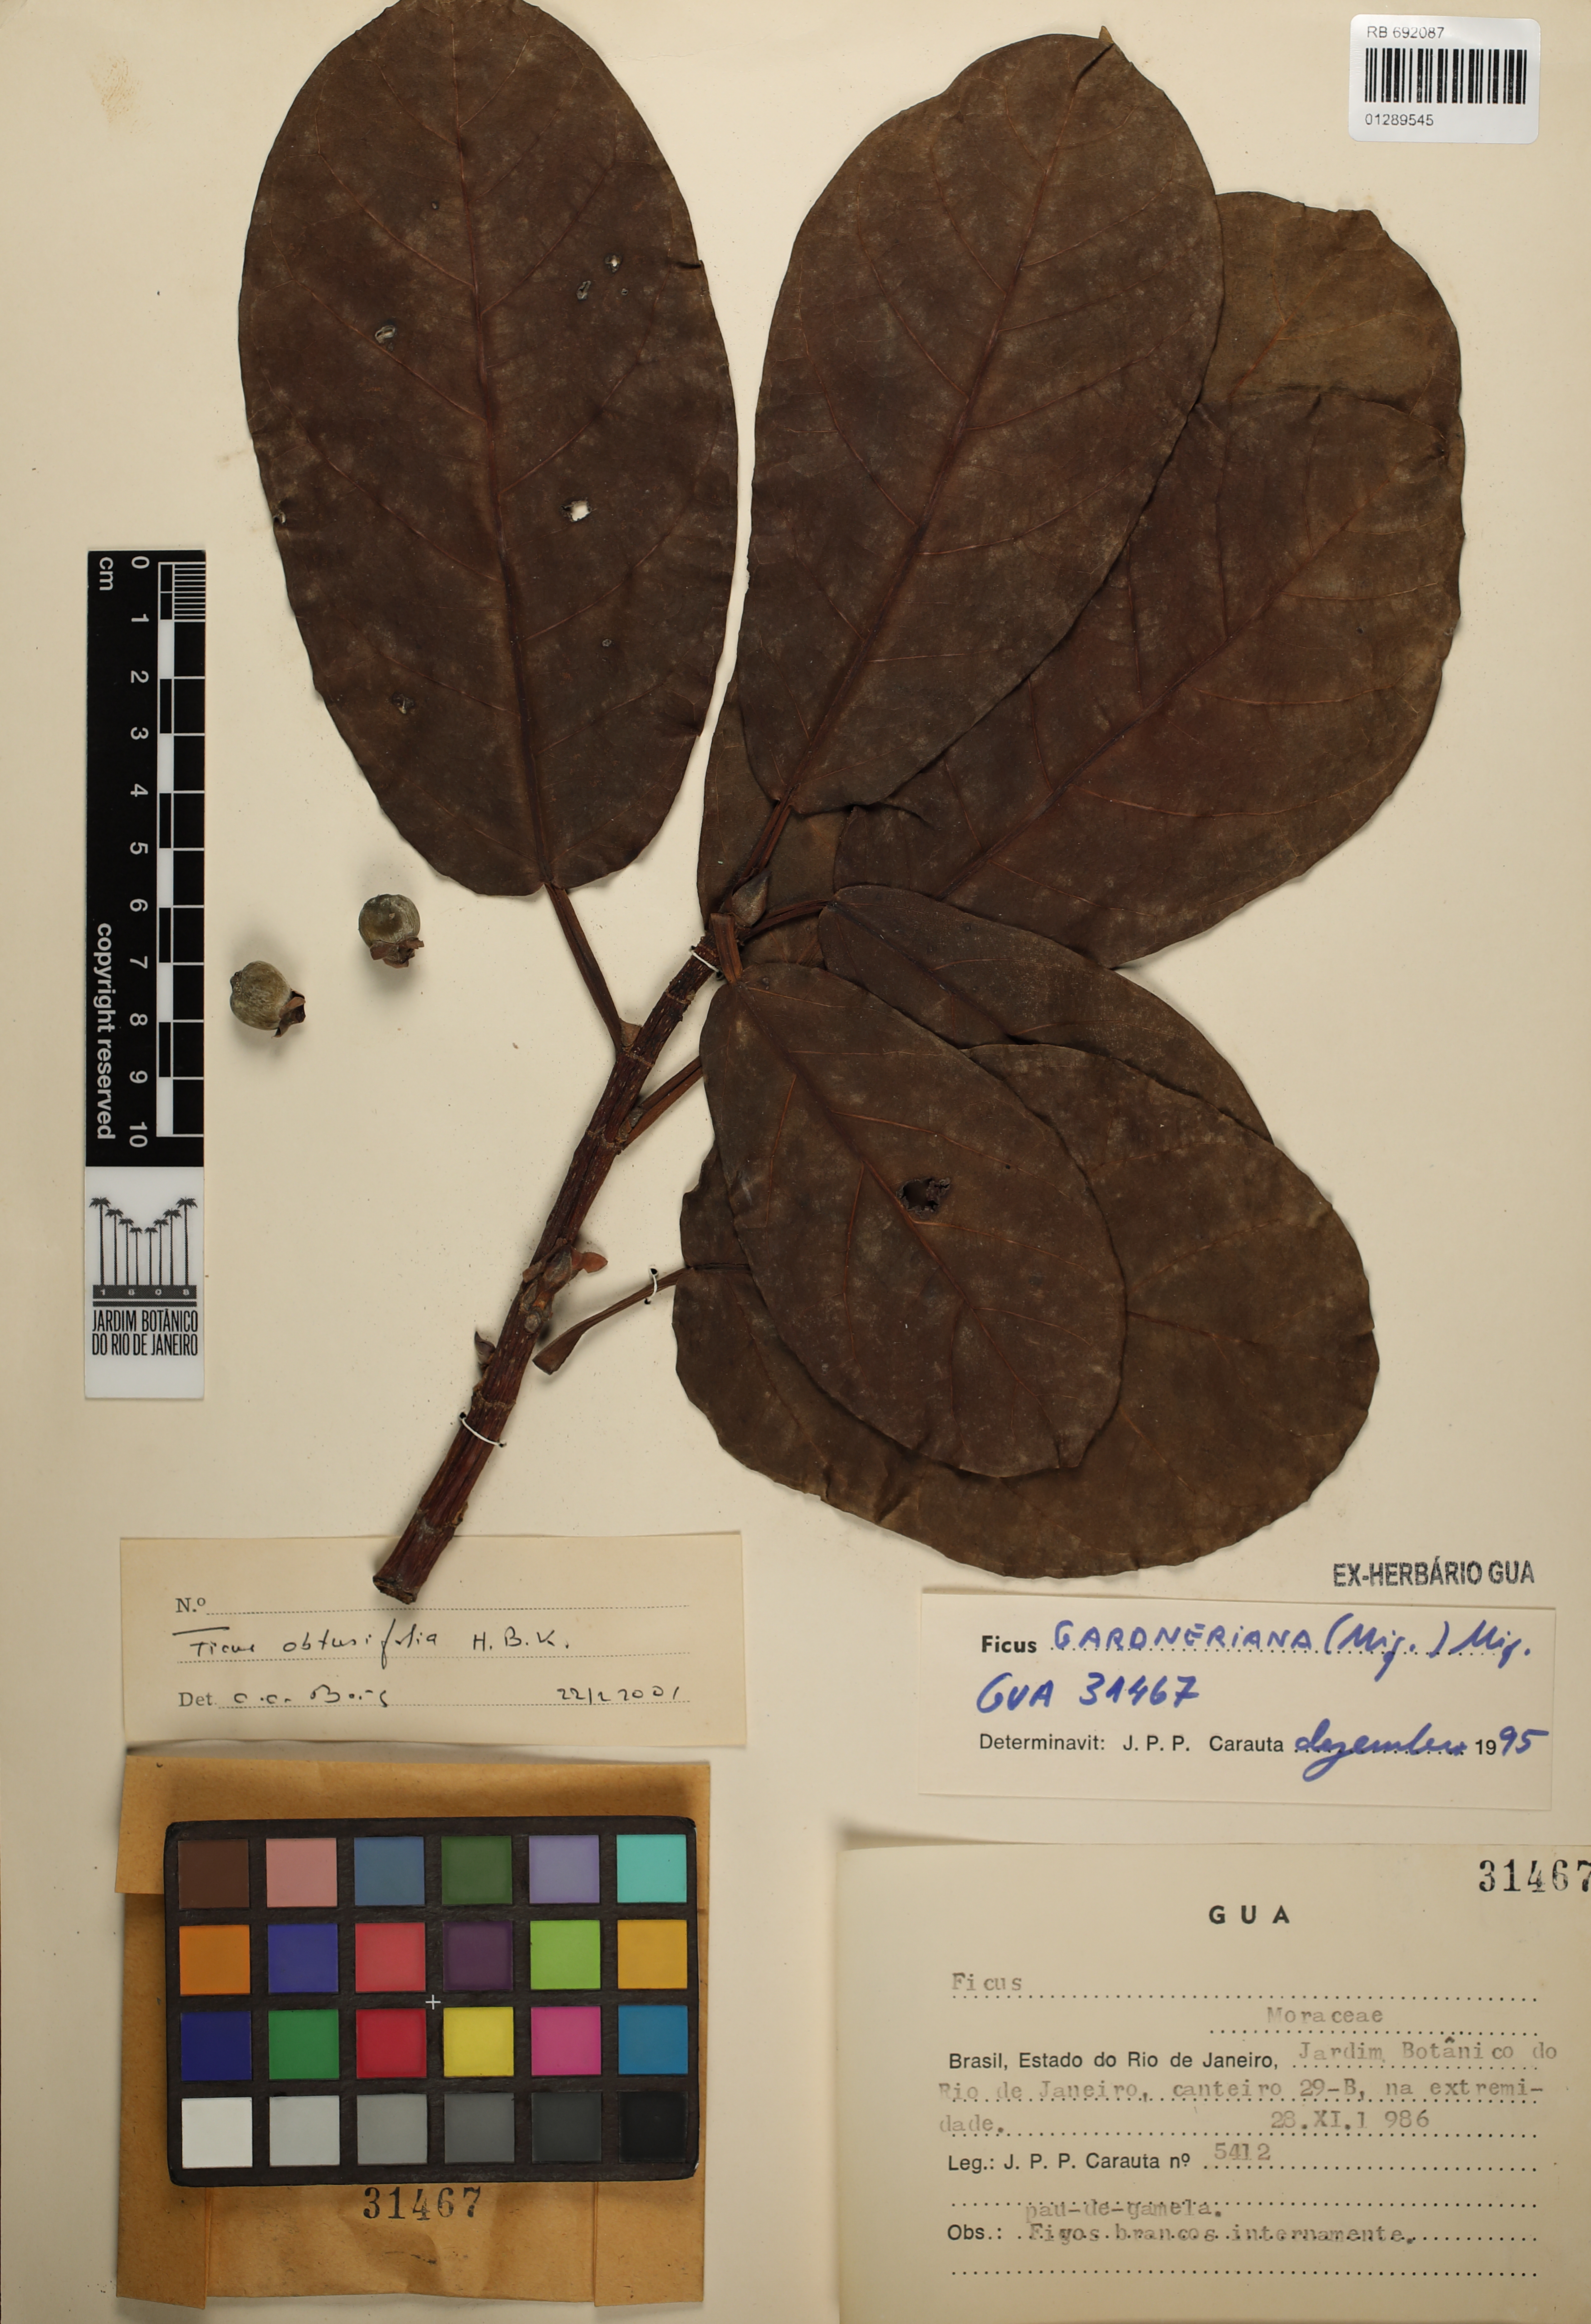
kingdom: Plantae
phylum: Tracheophyta
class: Magnoliopsida
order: Rosales
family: Moraceae
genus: Ficus
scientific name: Ficus obtusifolia
